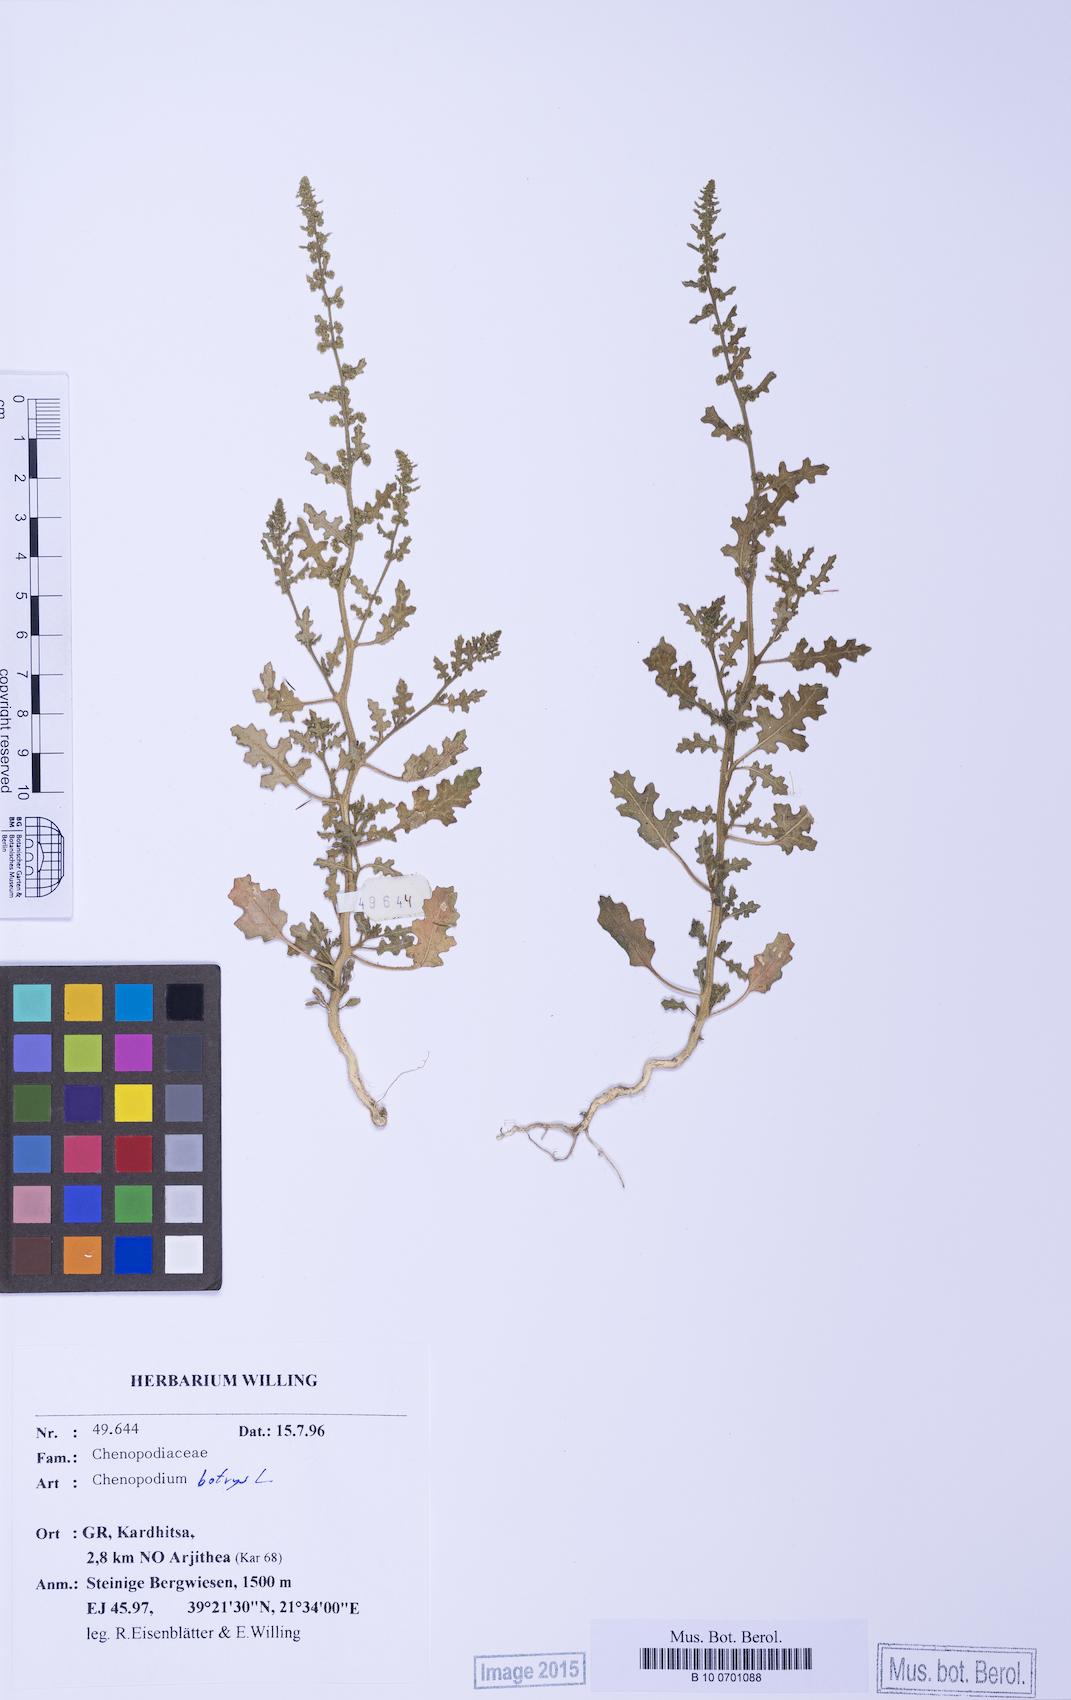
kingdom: Plantae
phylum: Tracheophyta
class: Magnoliopsida
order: Caryophyllales
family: Amaranthaceae
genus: Dysphania
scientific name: Dysphania botrys
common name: Feather-geranium
